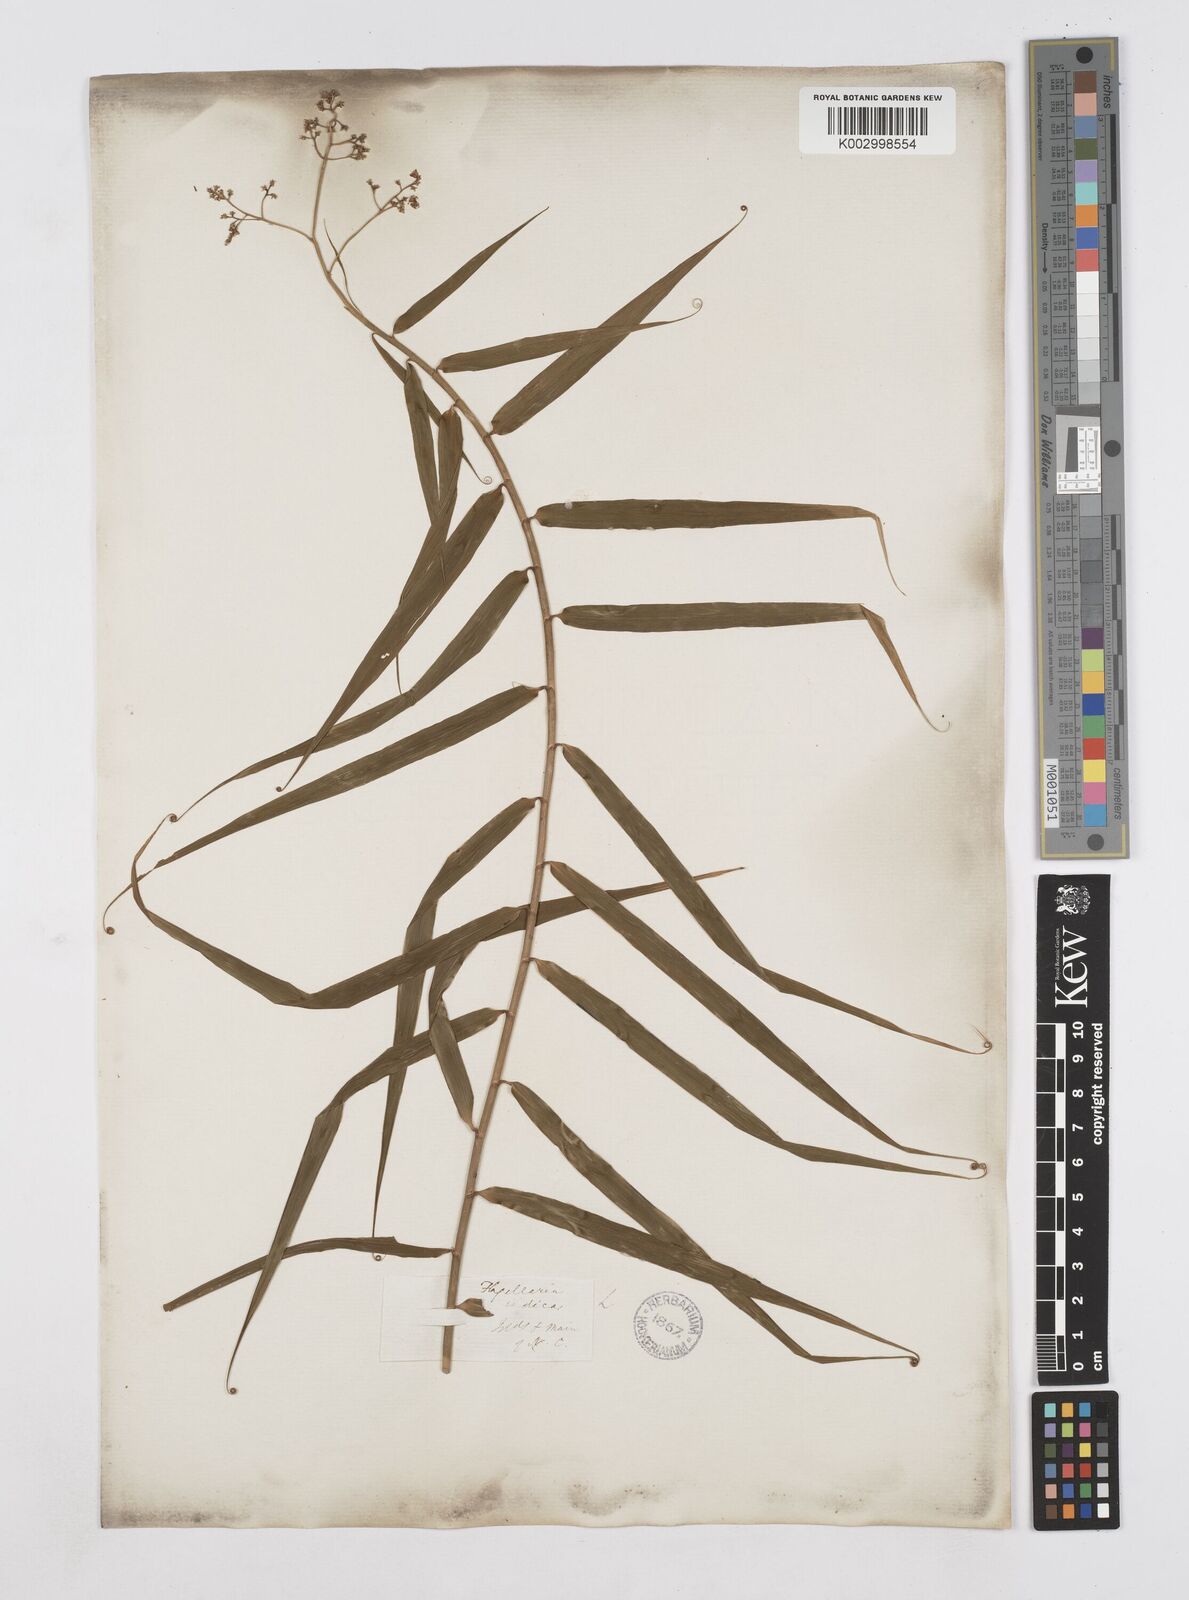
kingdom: Plantae
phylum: Tracheophyta
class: Liliopsida
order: Poales
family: Flagellariaceae
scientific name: Flagellariaceae
